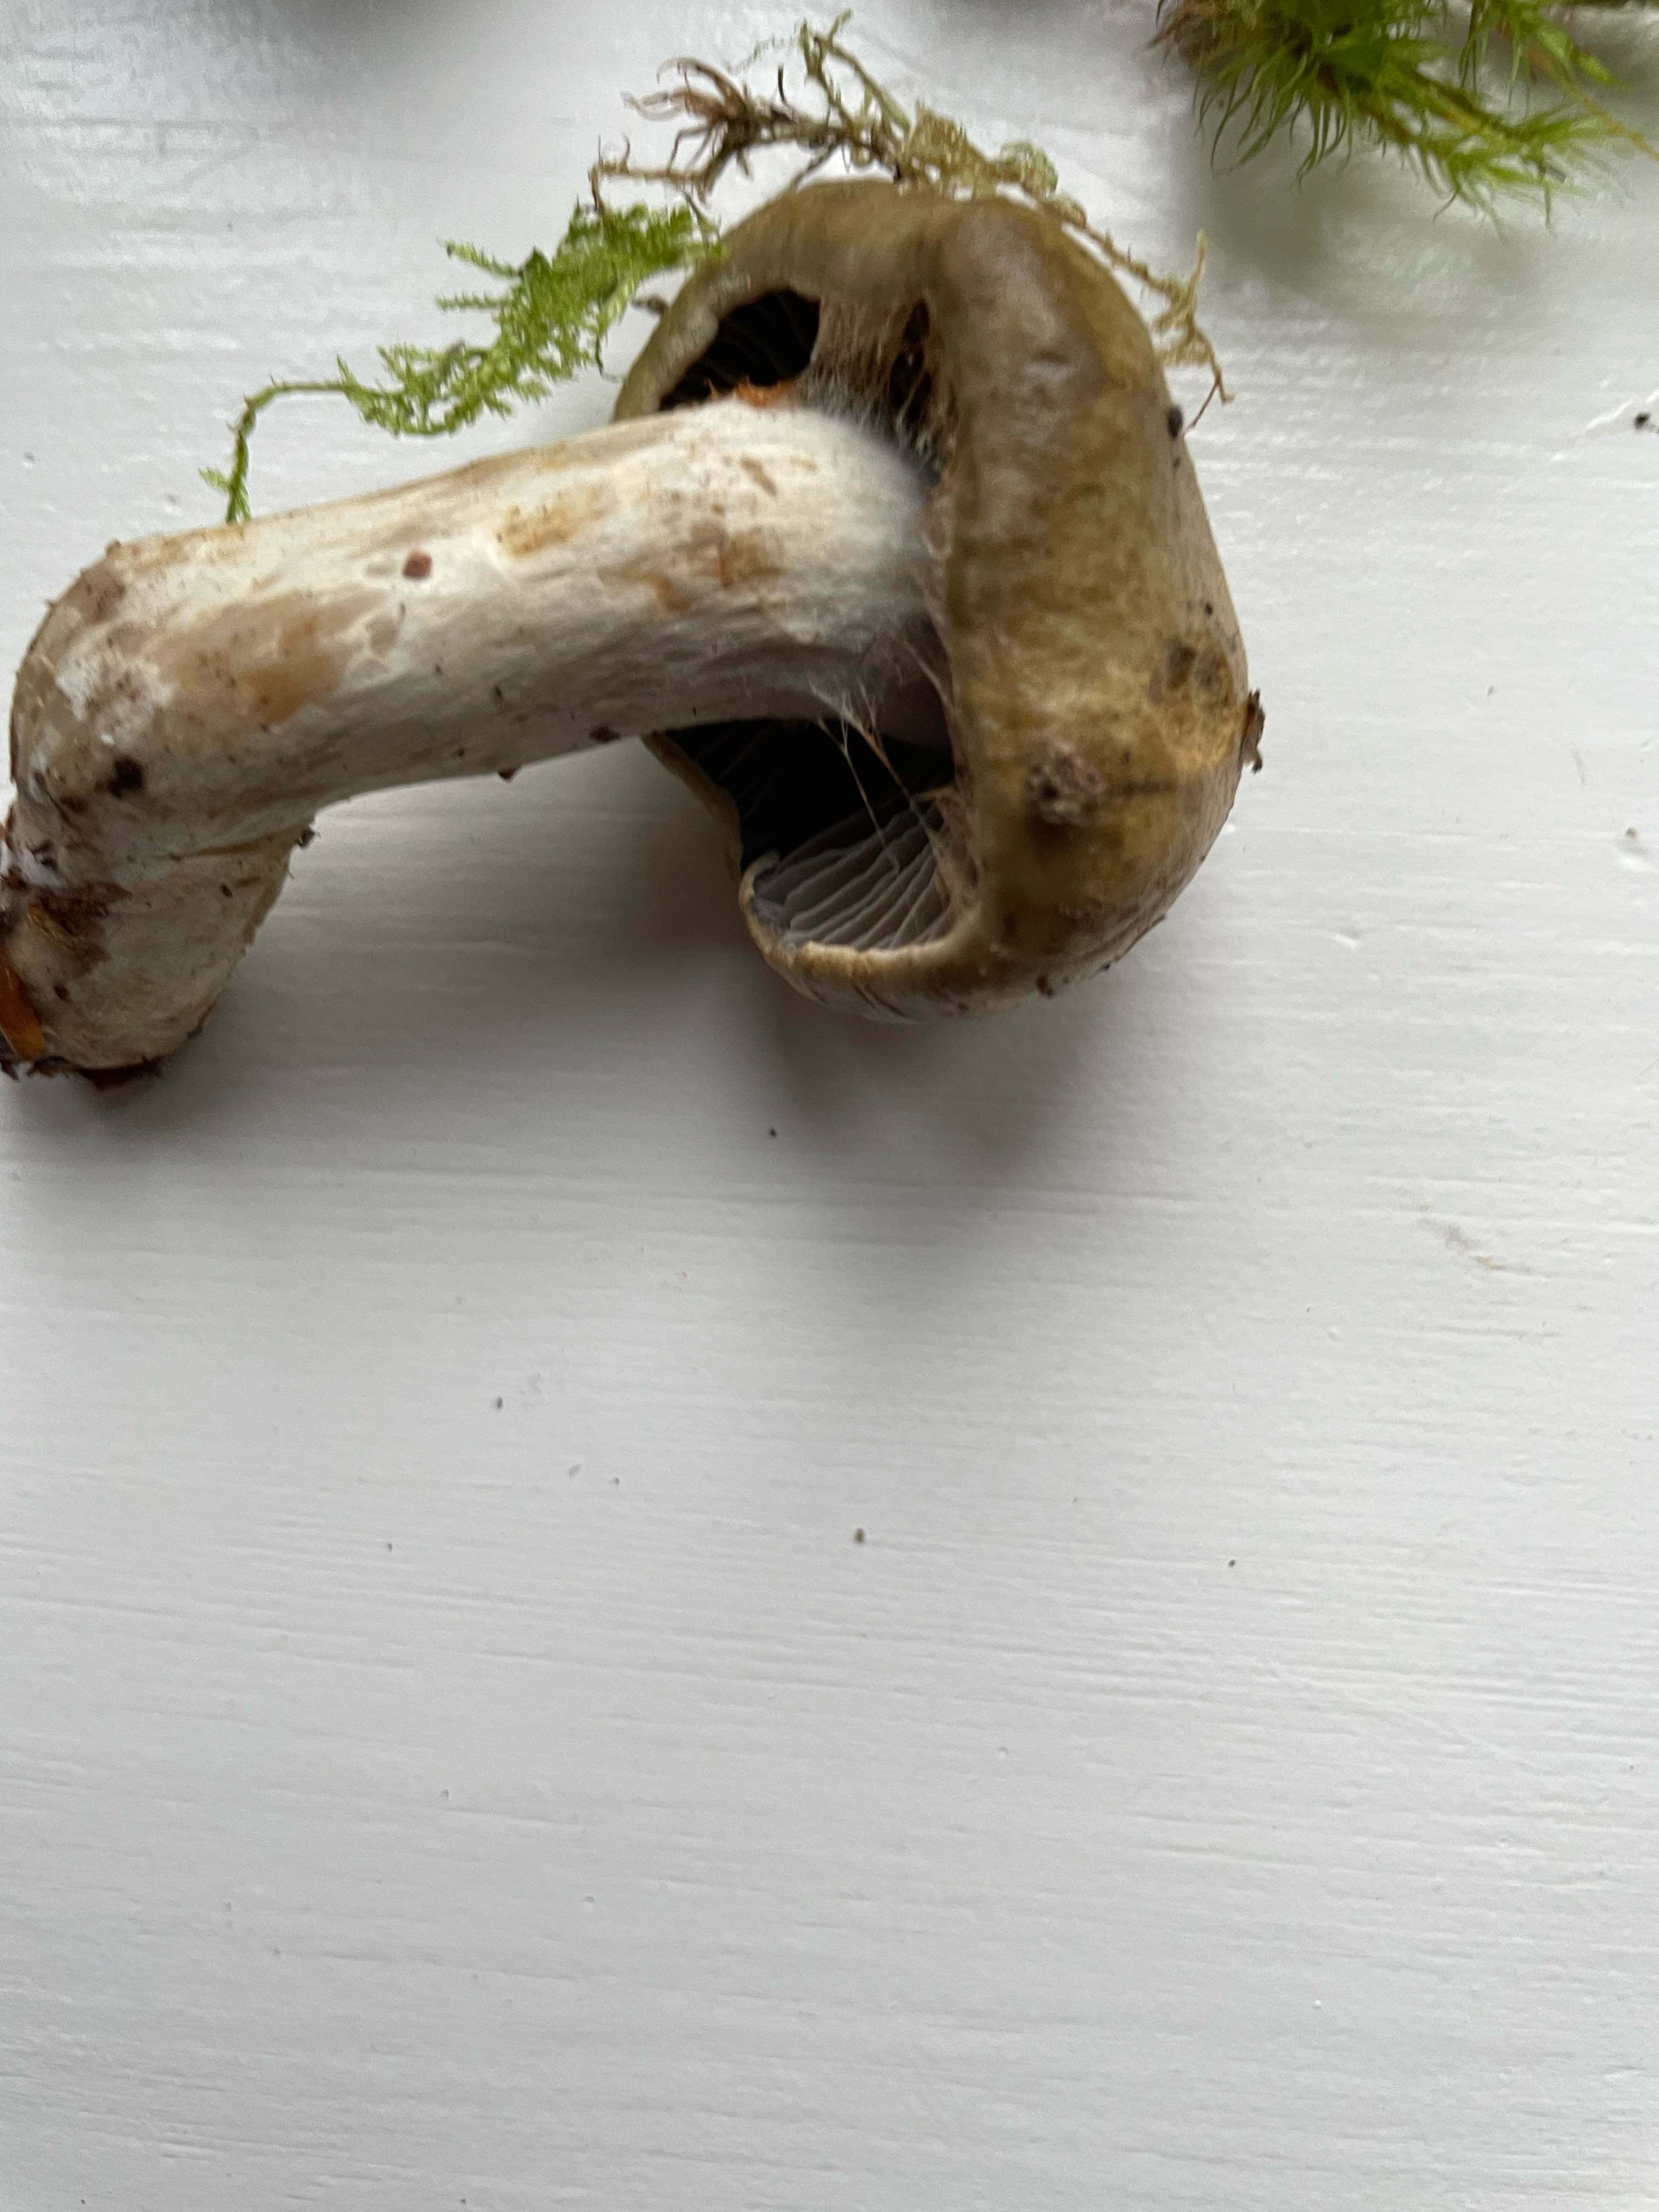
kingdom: Fungi
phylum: Basidiomycota
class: Agaricomycetes
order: Agaricales
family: Cortinariaceae
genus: Cortinarius
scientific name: Cortinarius
